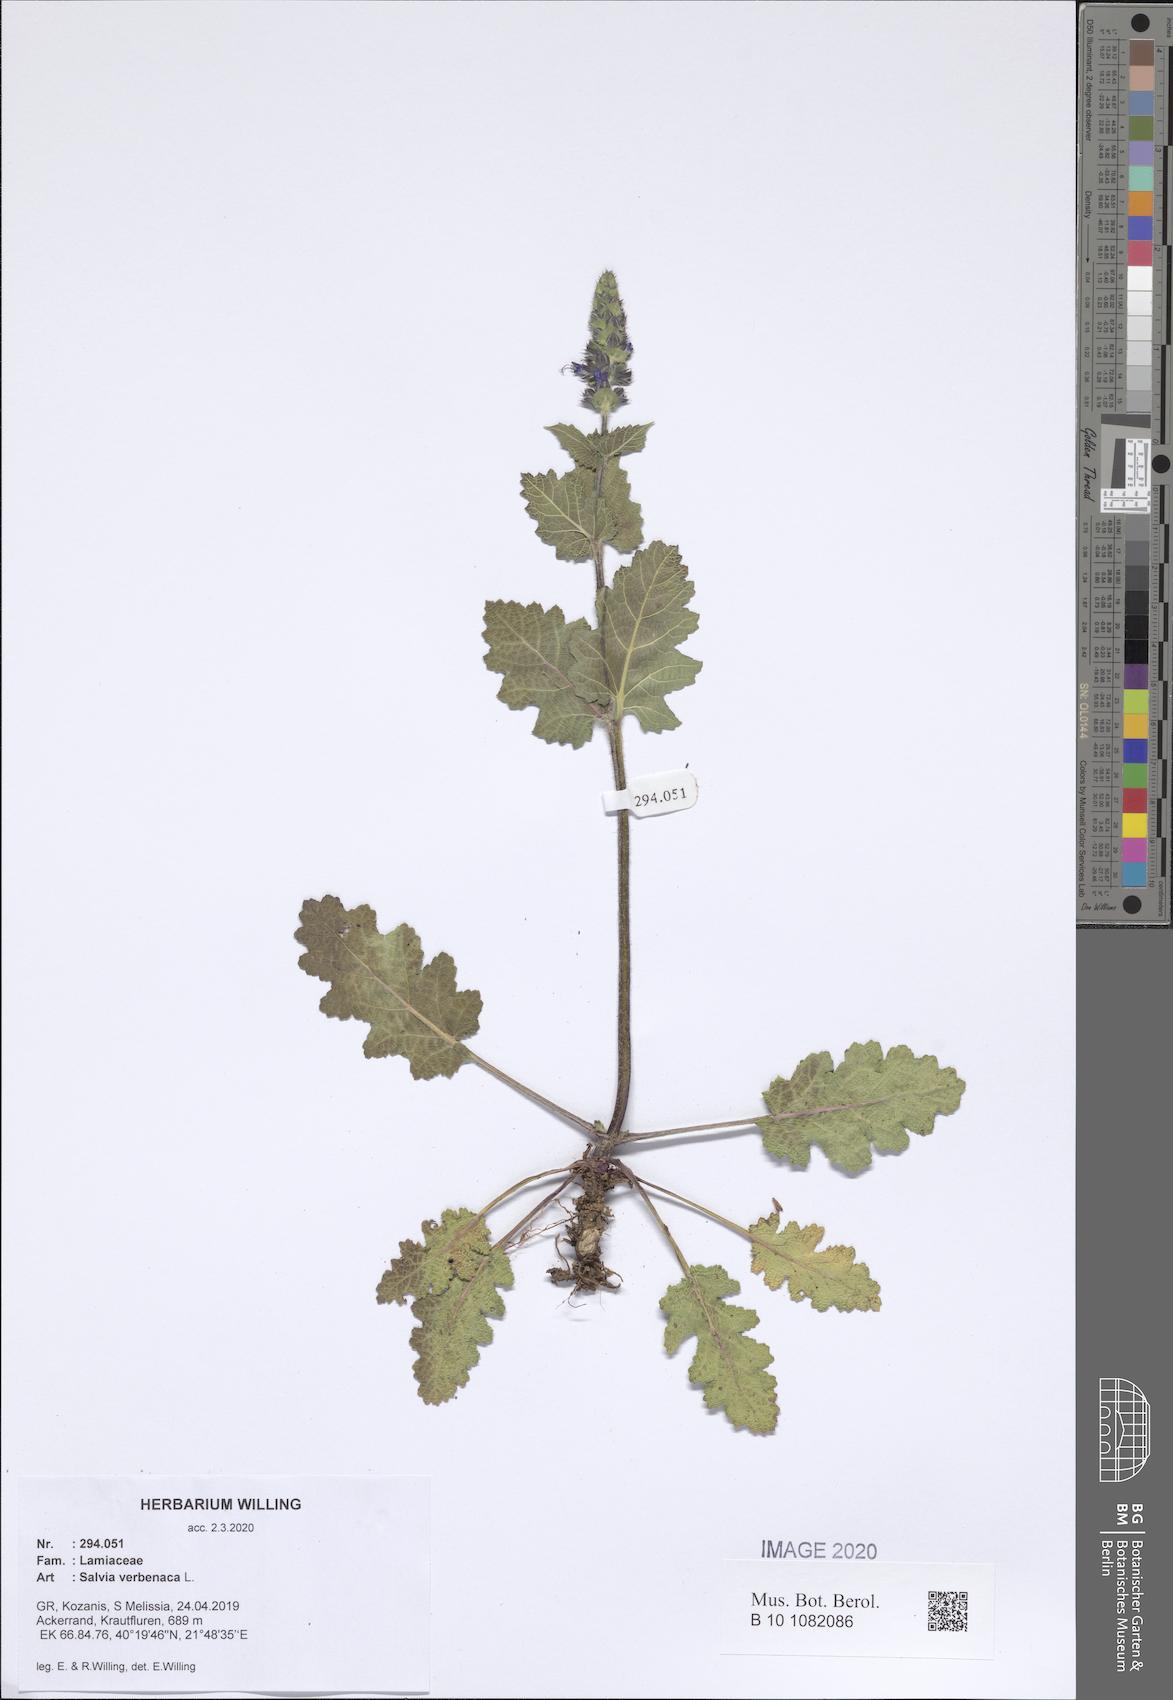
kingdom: Plantae
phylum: Tracheophyta
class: Magnoliopsida
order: Lamiales
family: Lamiaceae
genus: Salvia
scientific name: Salvia verbenaca
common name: Wild clary
